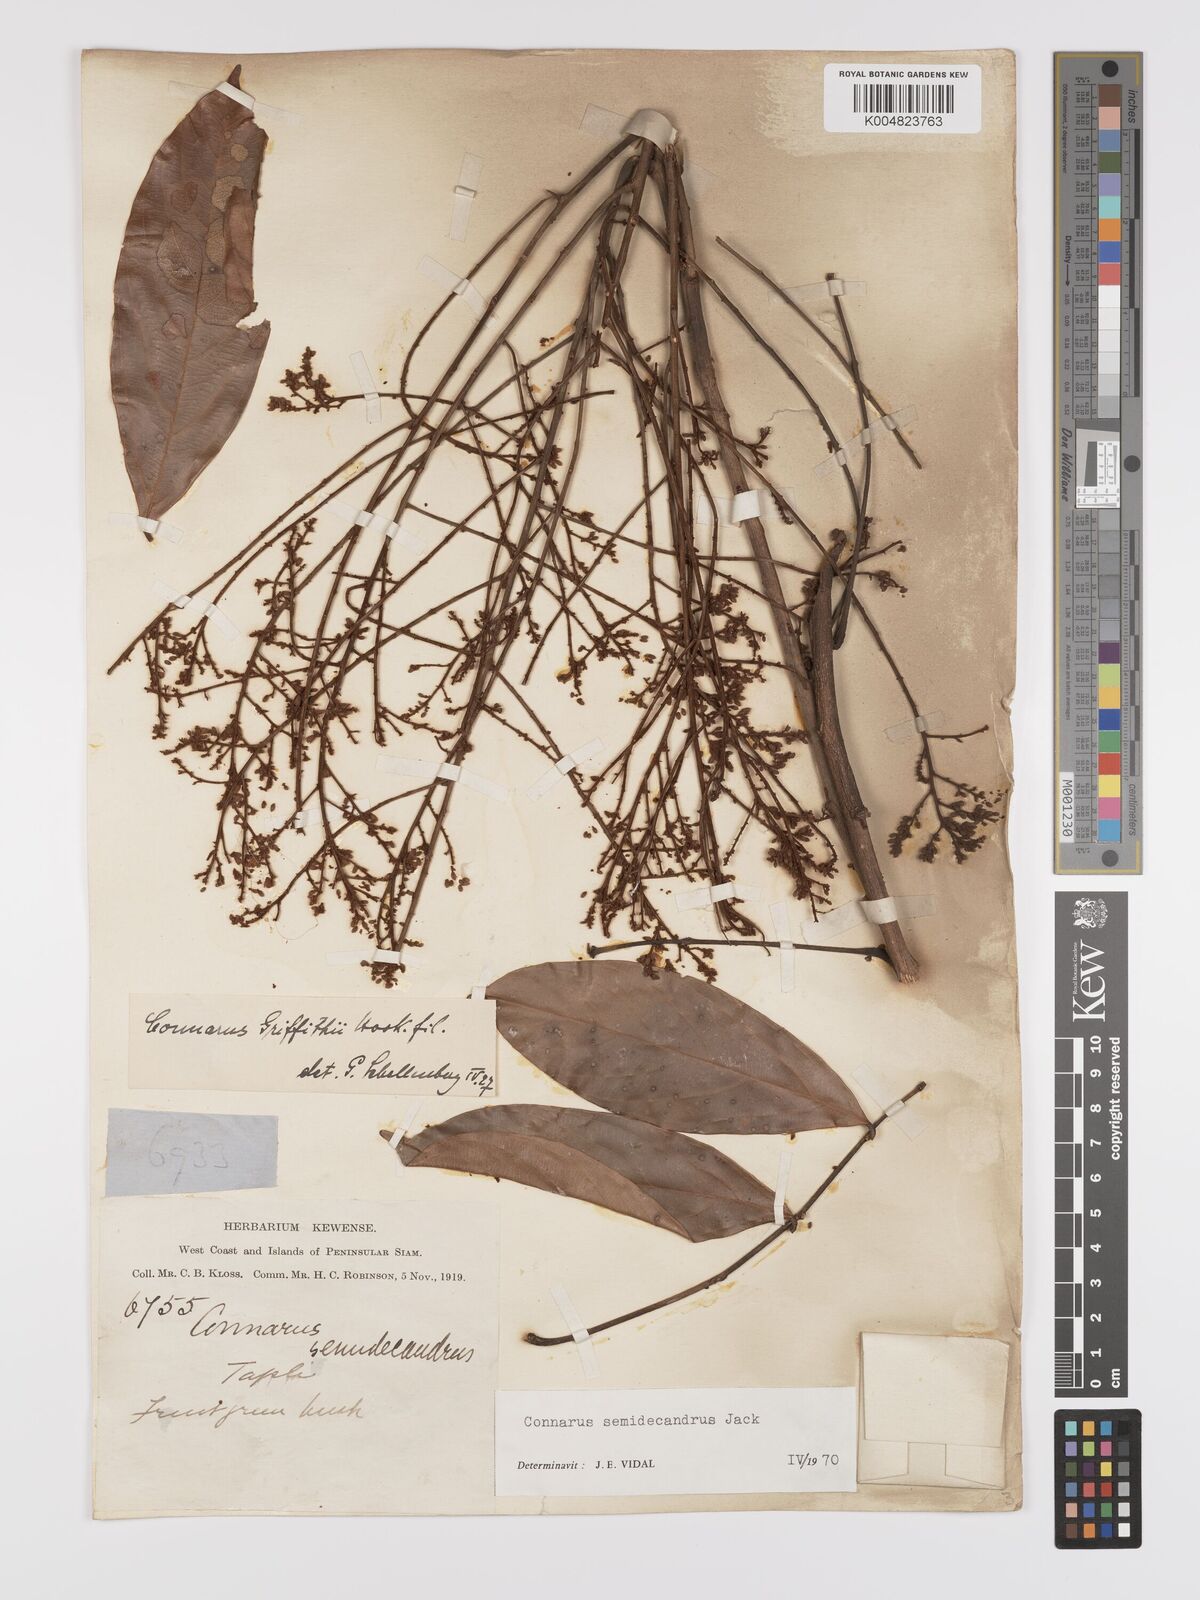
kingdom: Plantae
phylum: Tracheophyta
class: Magnoliopsida
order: Oxalidales
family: Connaraceae
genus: Connarus
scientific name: Connarus semidecandrus
